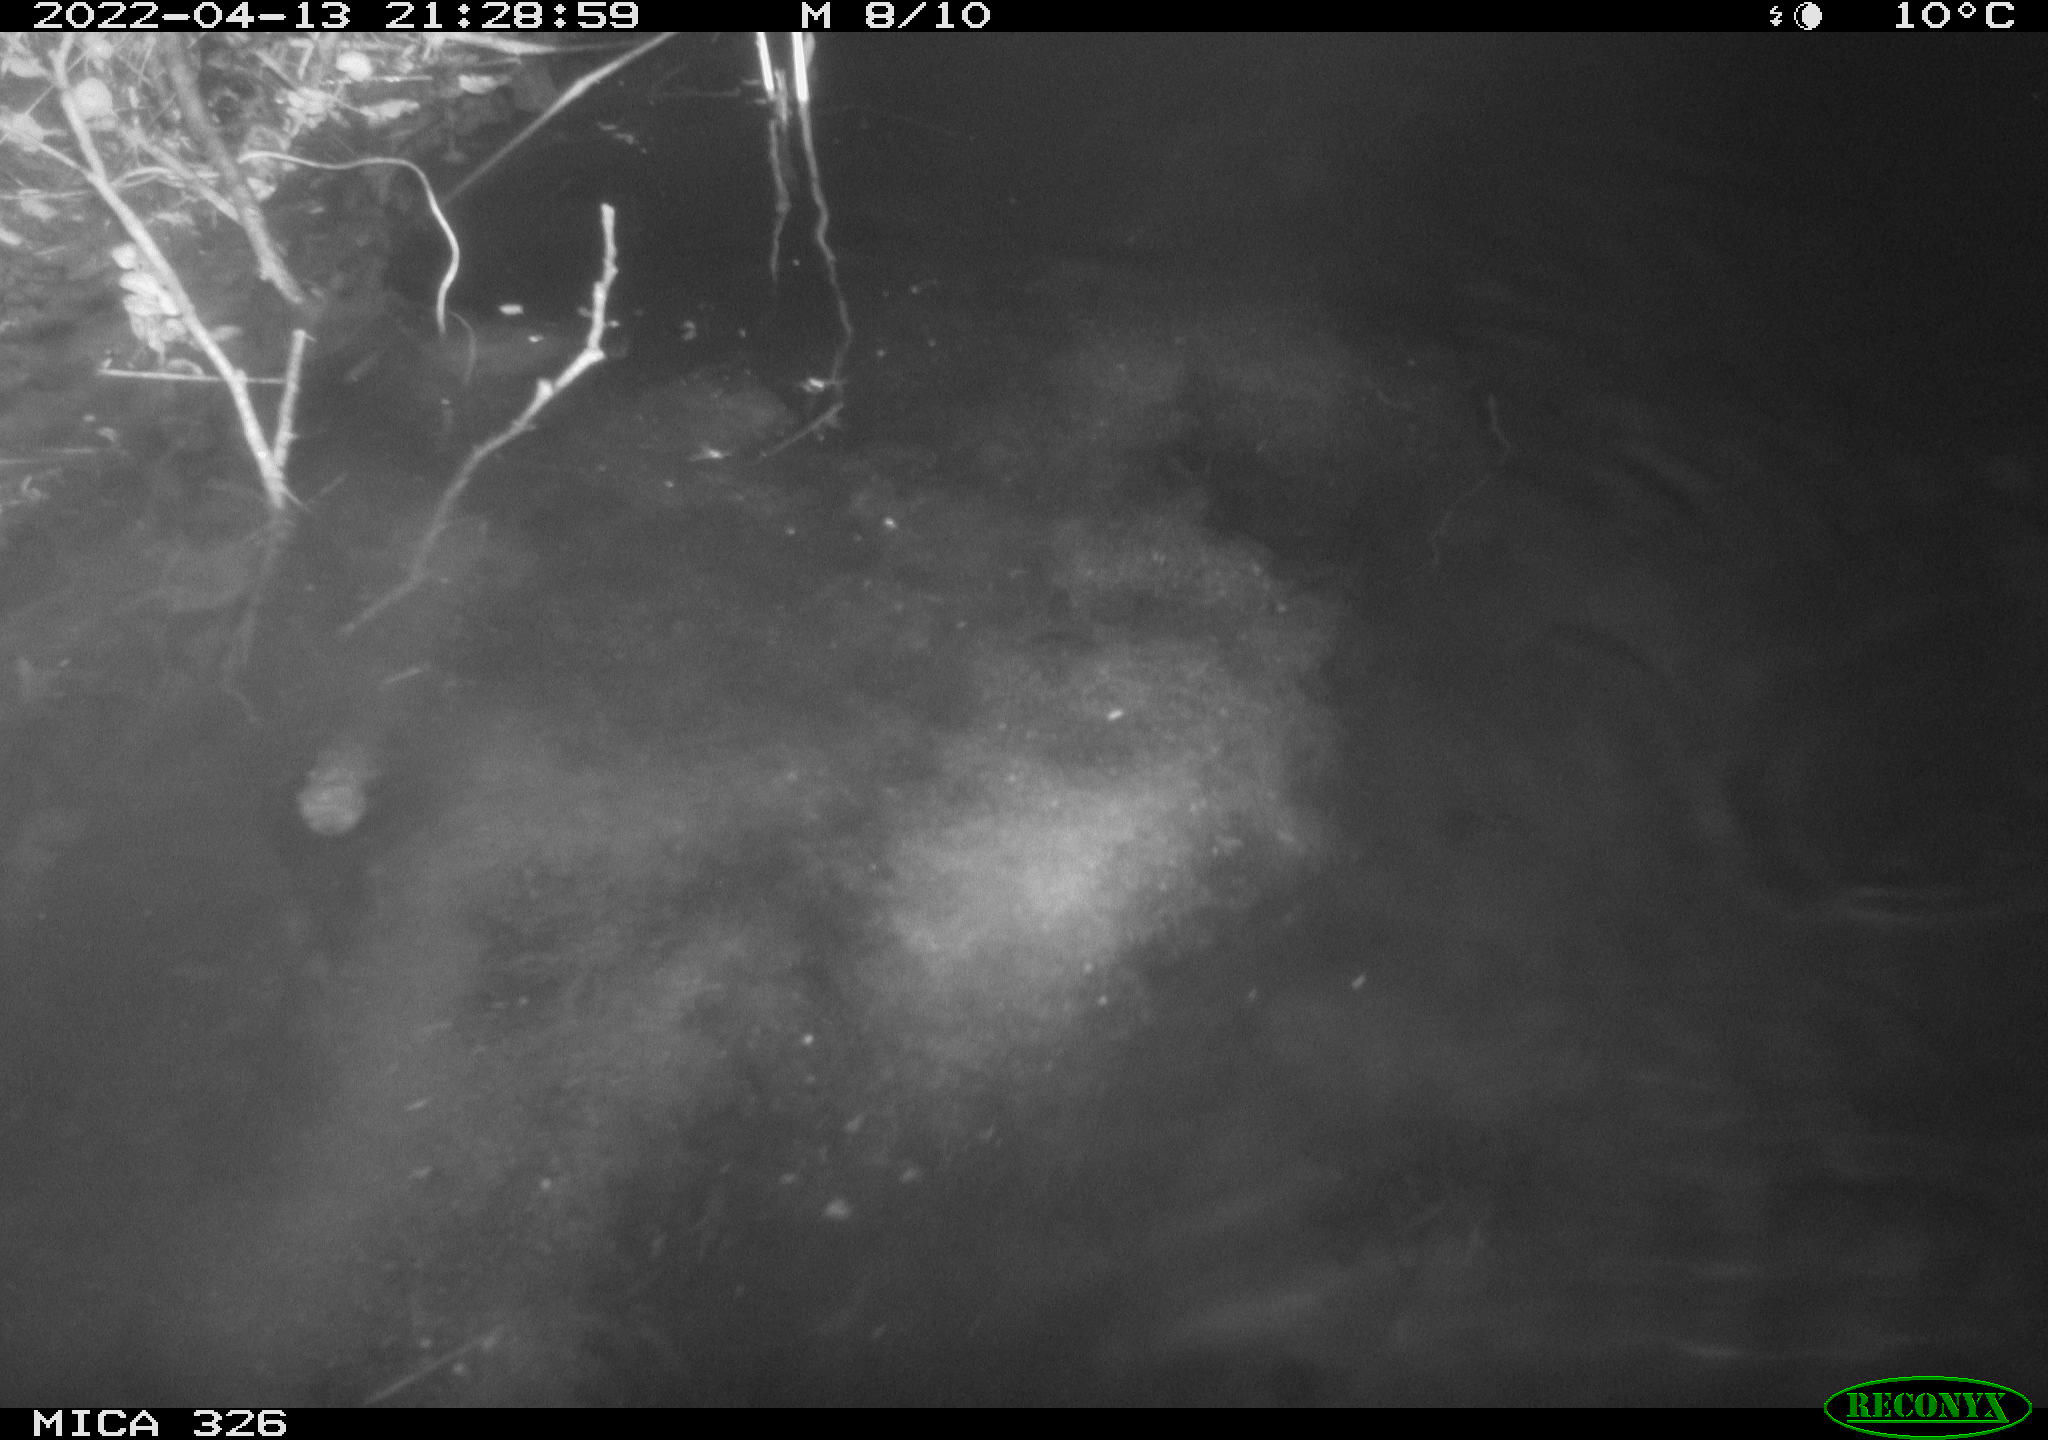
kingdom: Animalia
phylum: Chordata
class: Mammalia
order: Rodentia
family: Cricetidae
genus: Ondatra
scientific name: Ondatra zibethicus
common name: Muskrat
